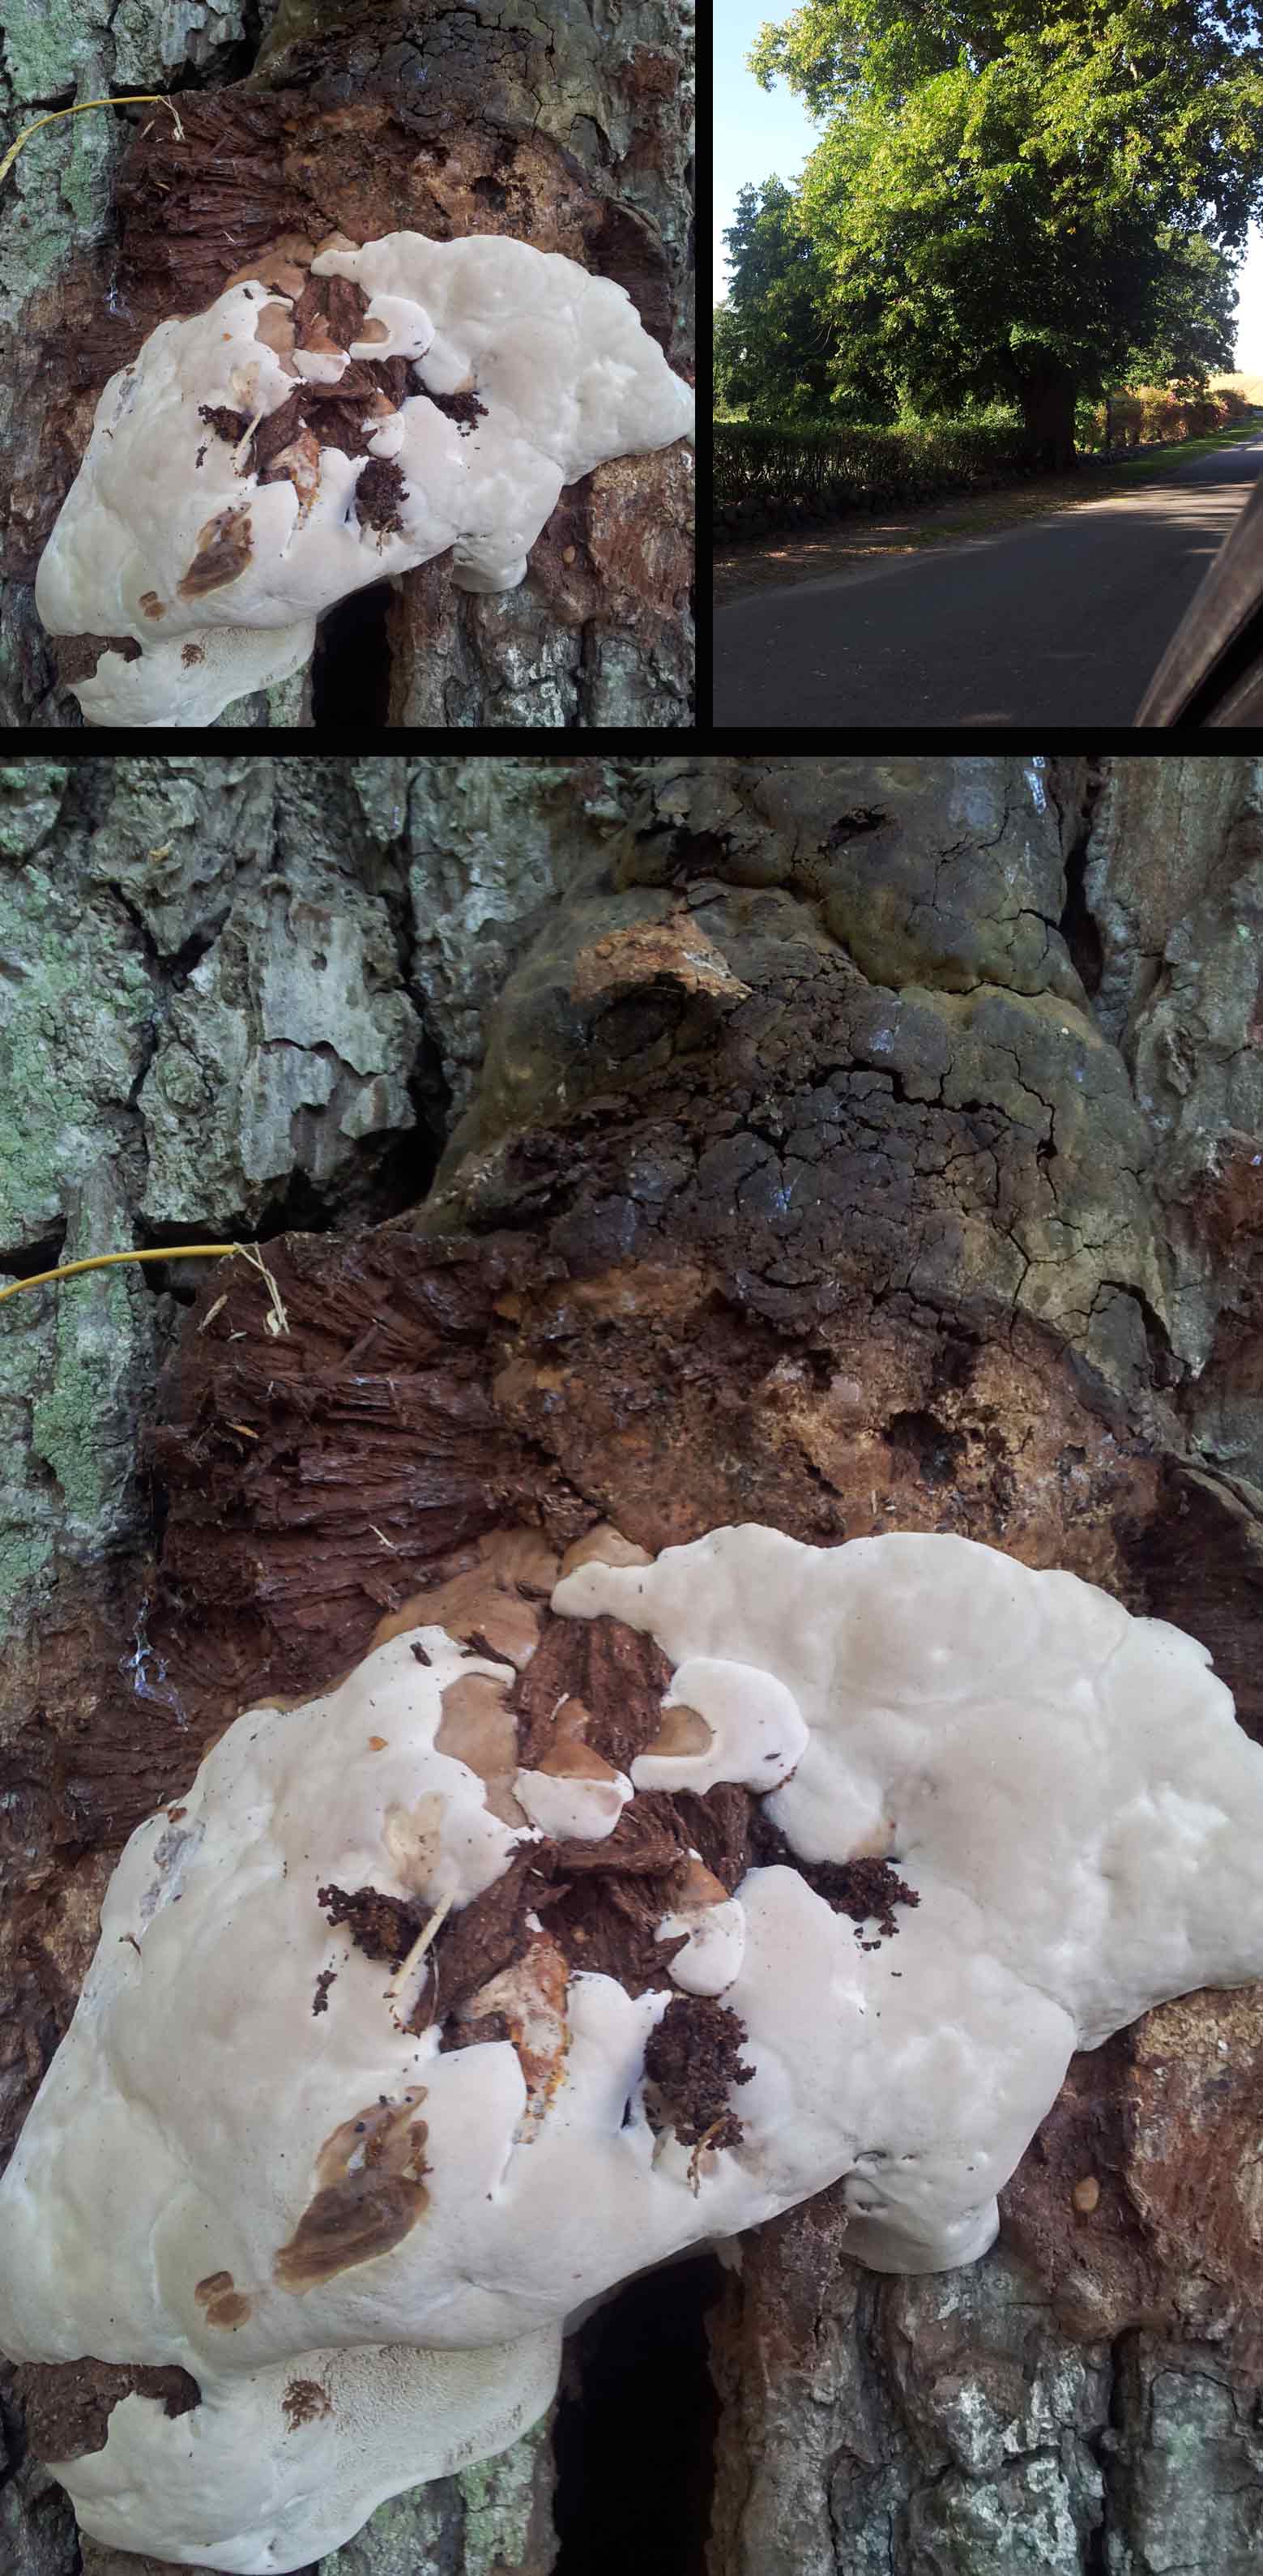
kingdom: Fungi
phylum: Basidiomycota
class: Agaricomycetes
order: Polyporales
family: Polyporaceae
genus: Ganoderma
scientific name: Ganoderma adspersum
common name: grov lakporesvamp
